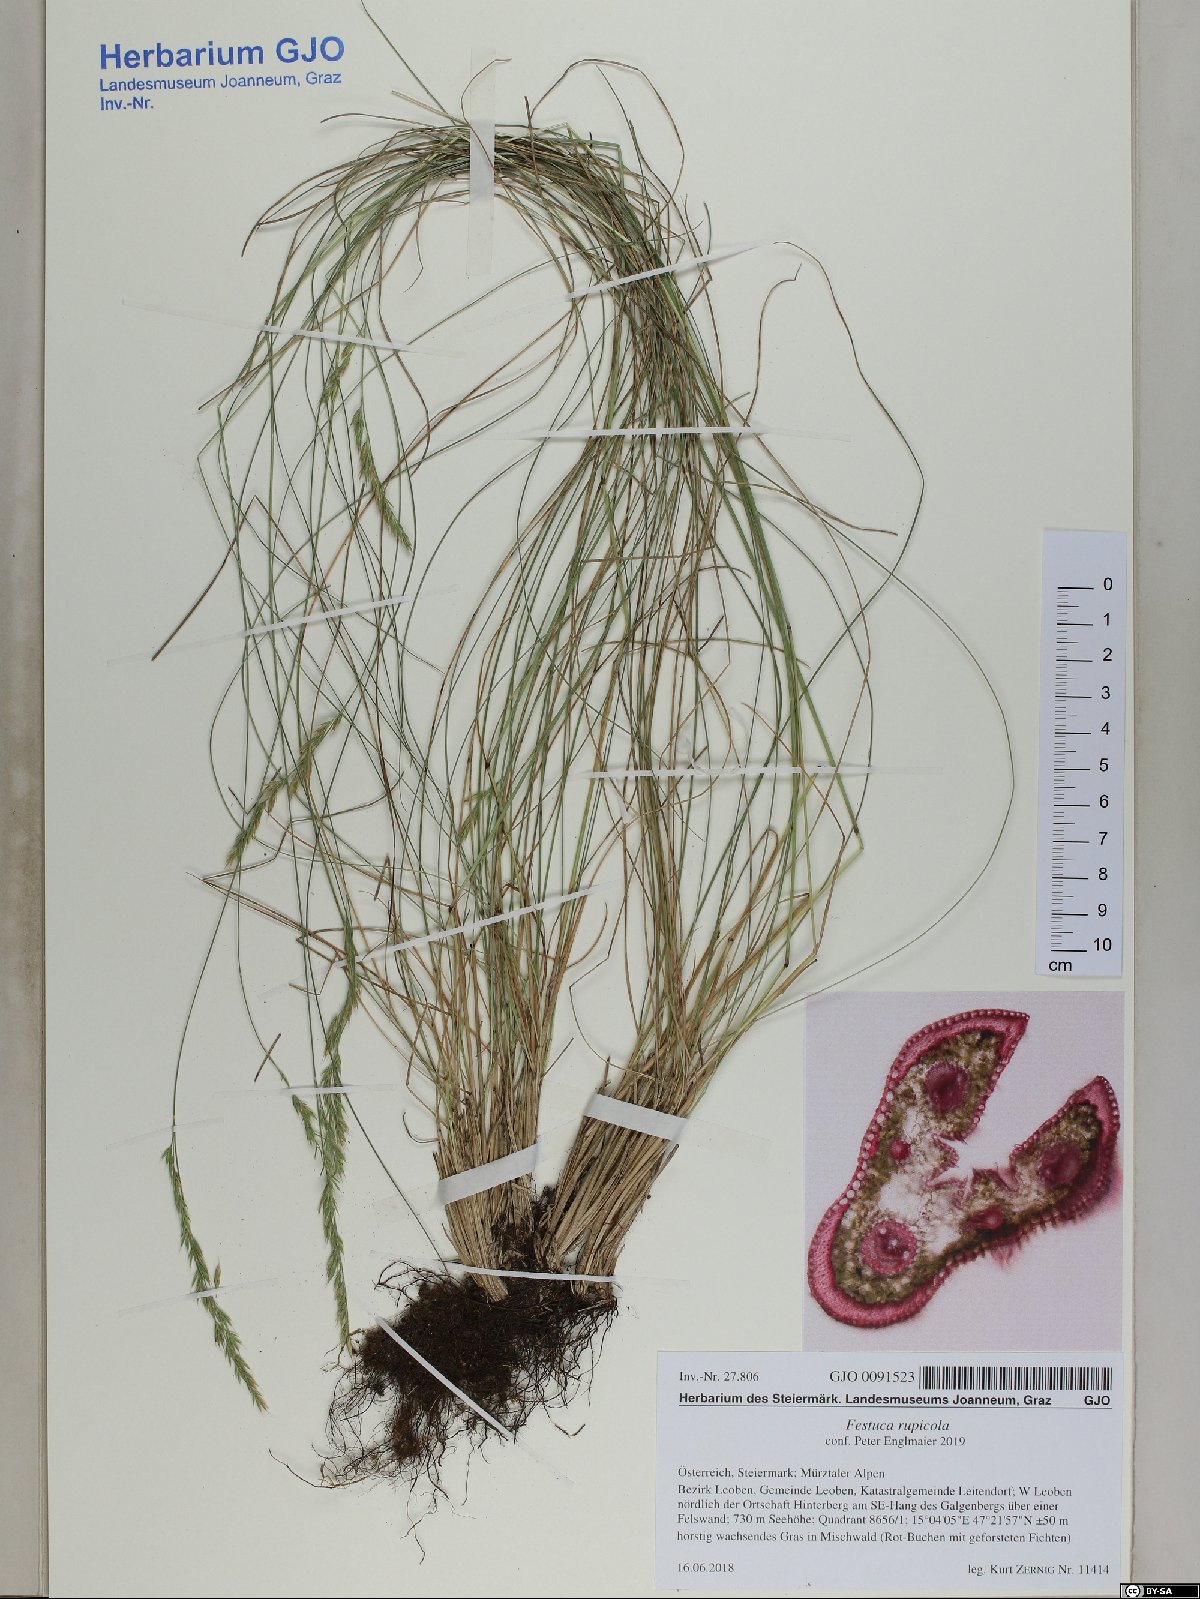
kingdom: Plantae
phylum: Tracheophyta
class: Liliopsida
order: Poales
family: Poaceae
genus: Festuca
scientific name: Festuca rupicola
